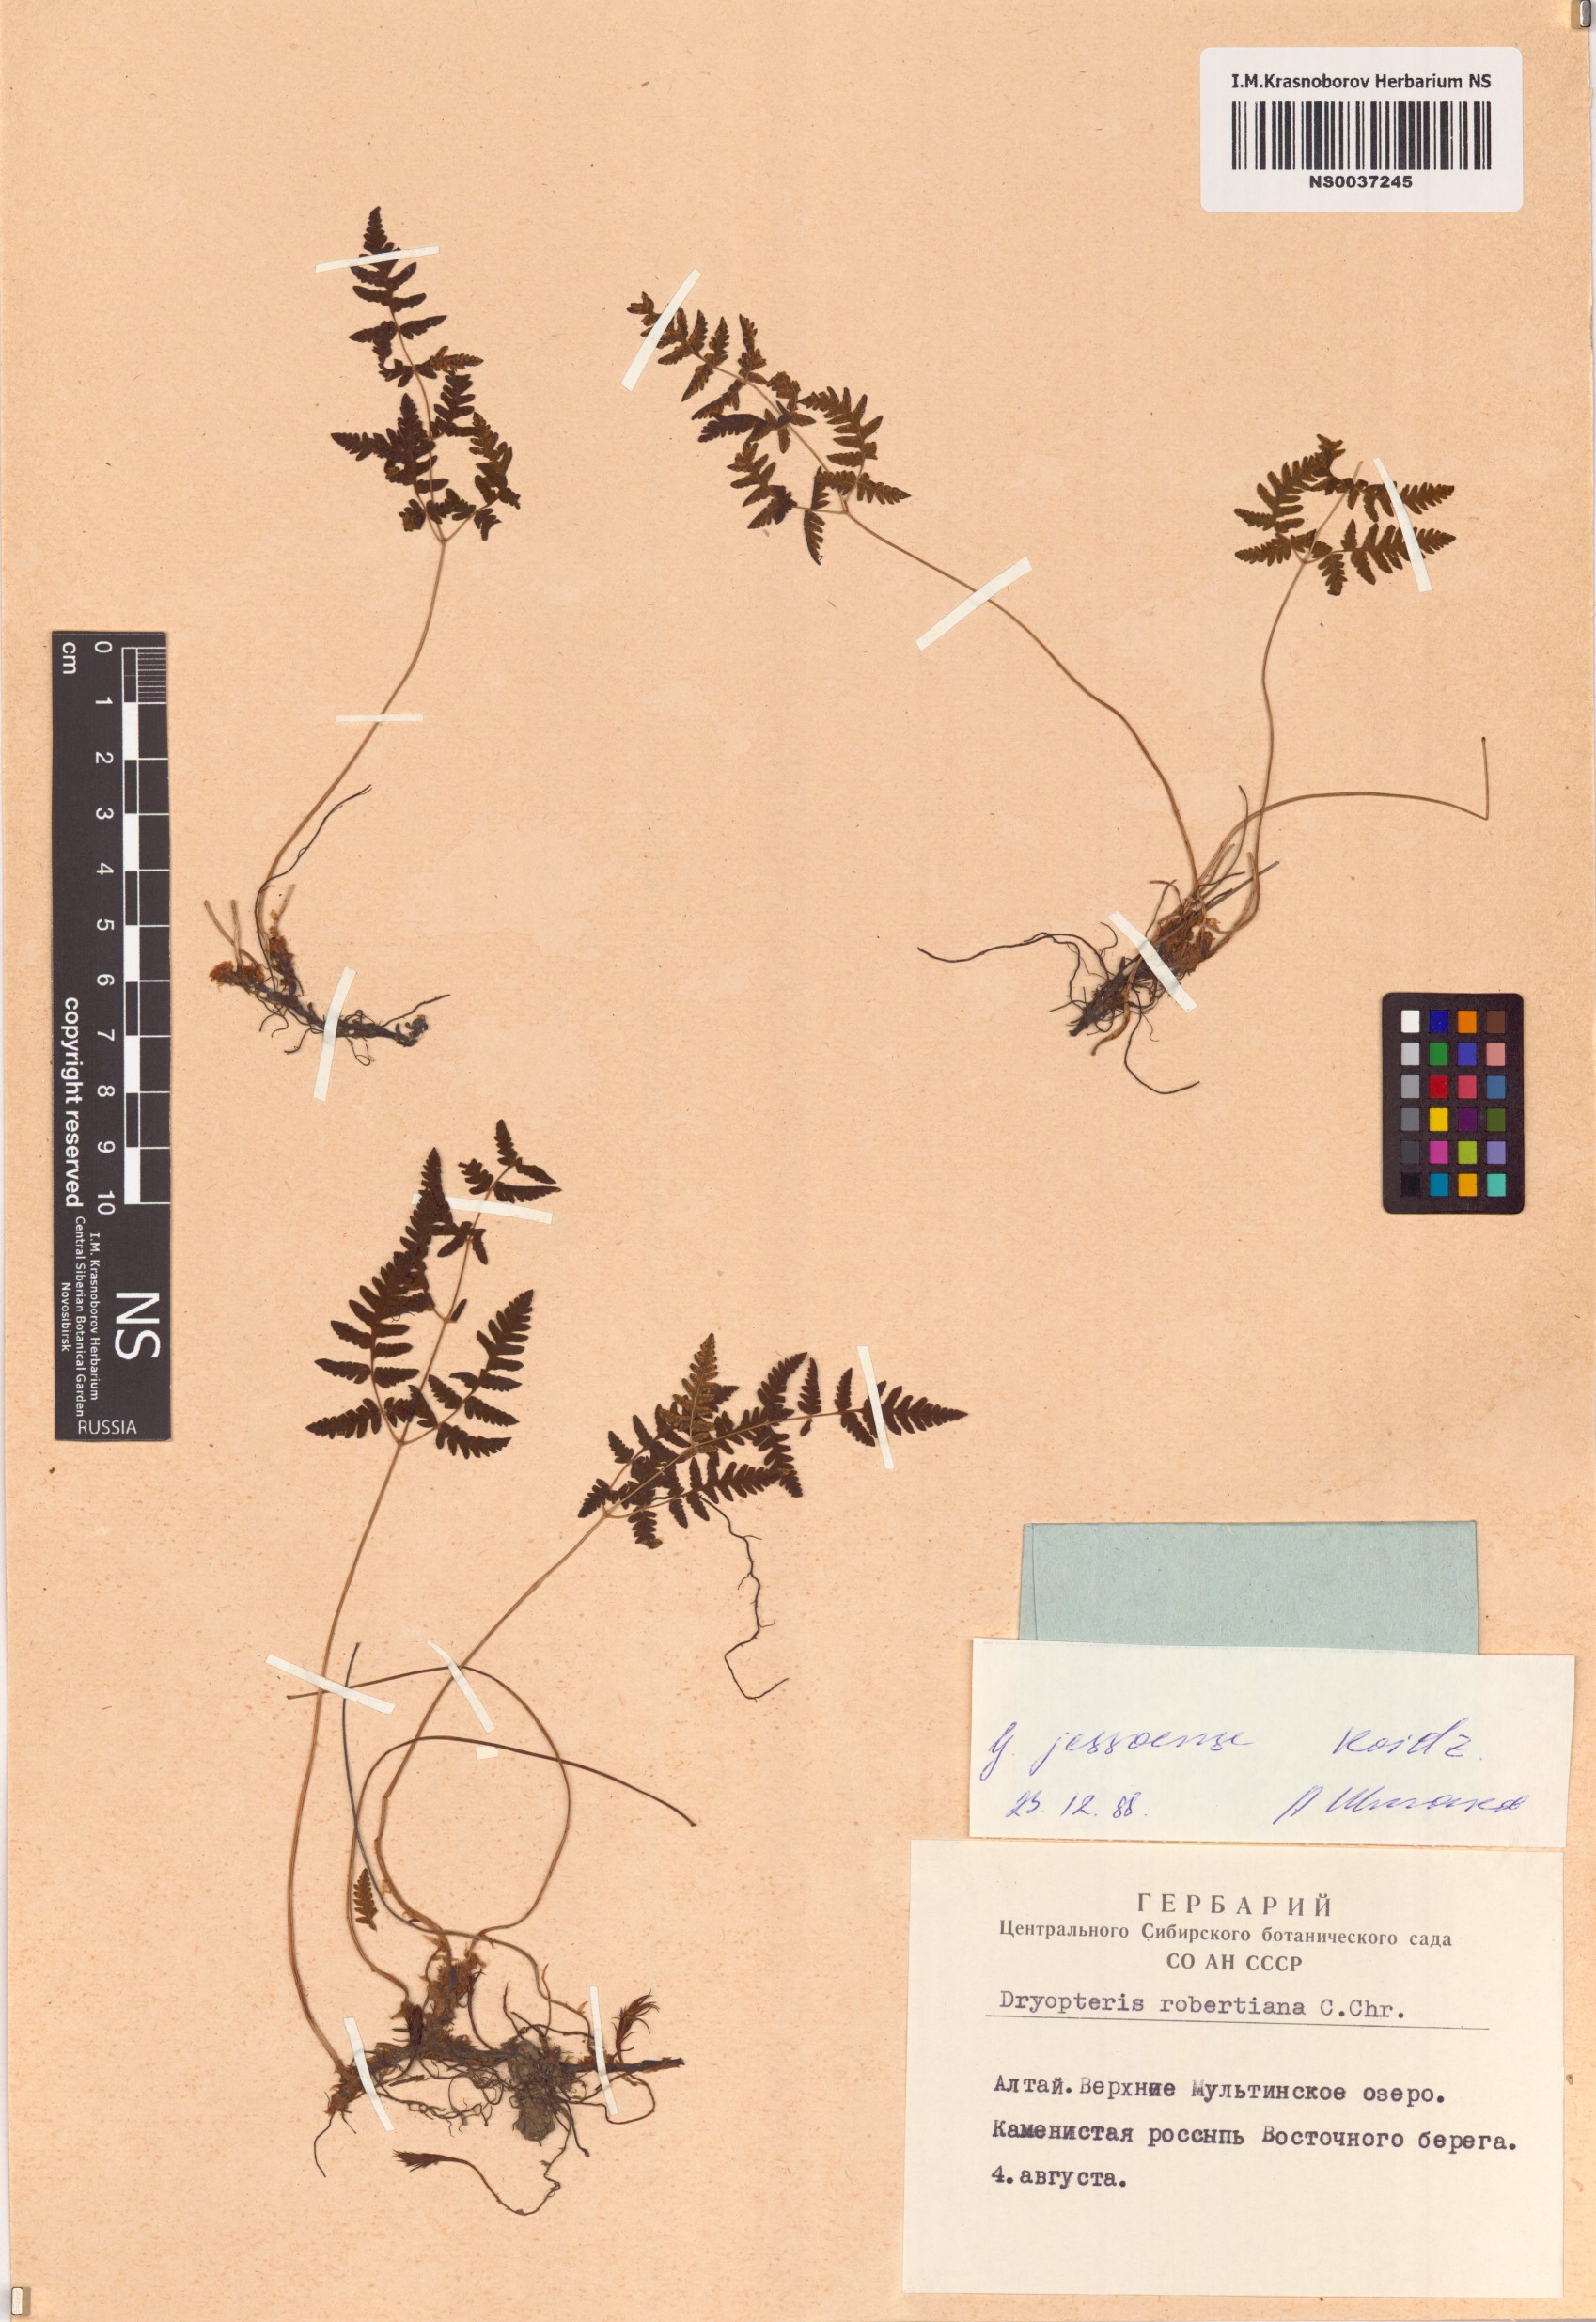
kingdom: Plantae
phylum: Tracheophyta
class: Polypodiopsida
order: Polypodiales
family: Cystopteridaceae
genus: Gymnocarpium
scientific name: Gymnocarpium jessoense
